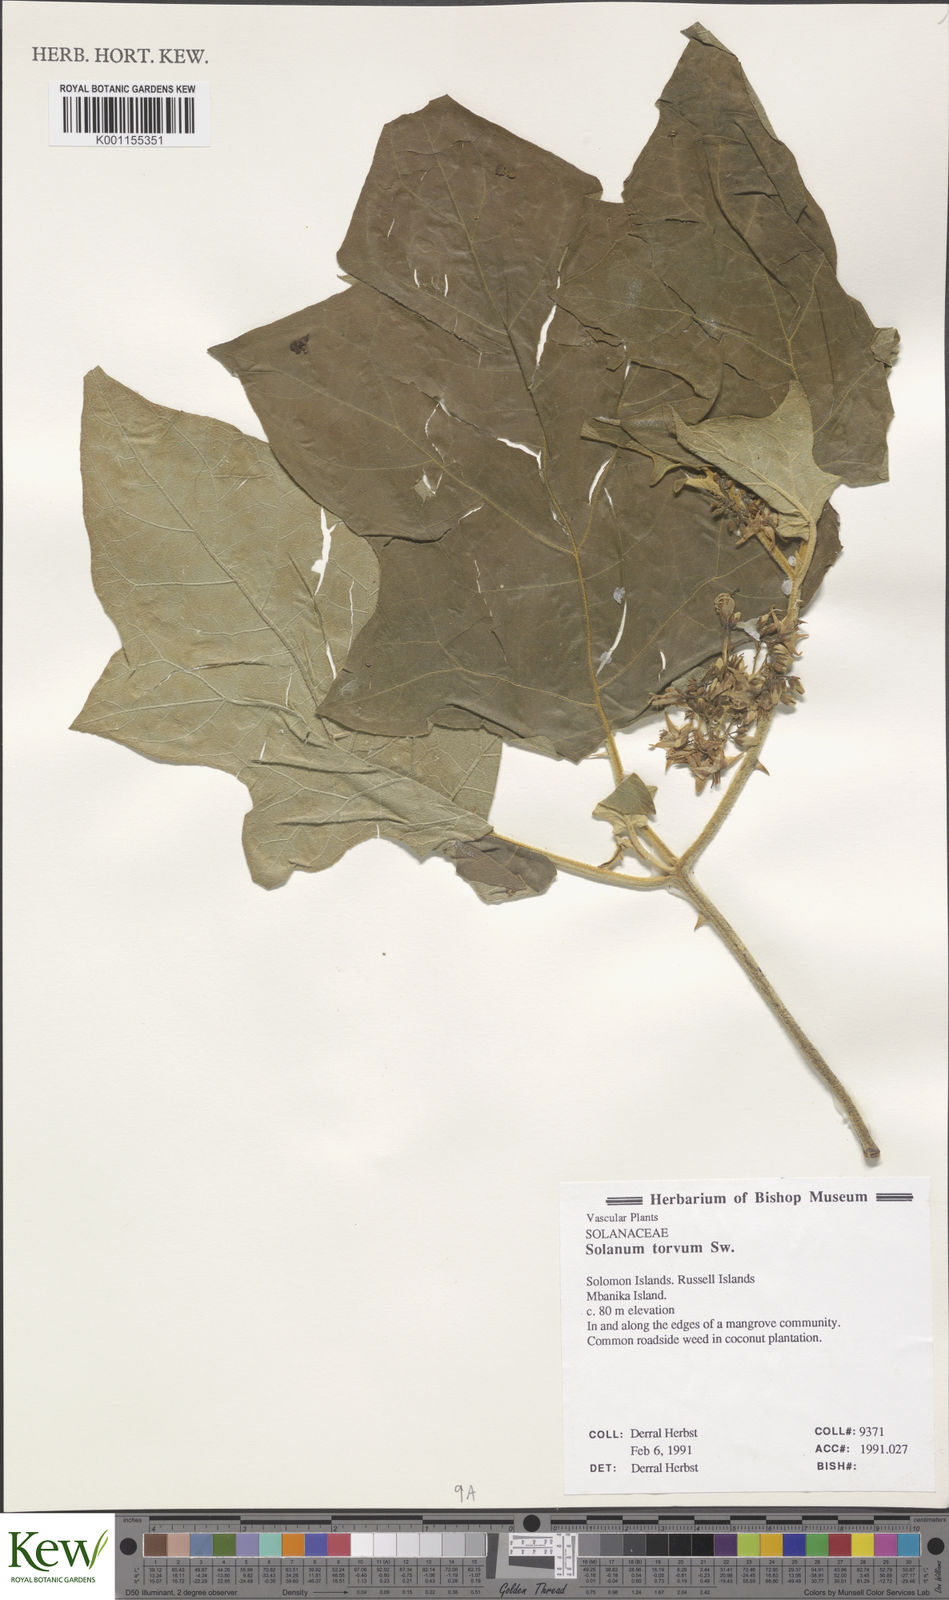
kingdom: Plantae
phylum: Tracheophyta
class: Magnoliopsida
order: Solanales
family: Solanaceae
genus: Solanum
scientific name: Solanum torvum
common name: Turkey berry
